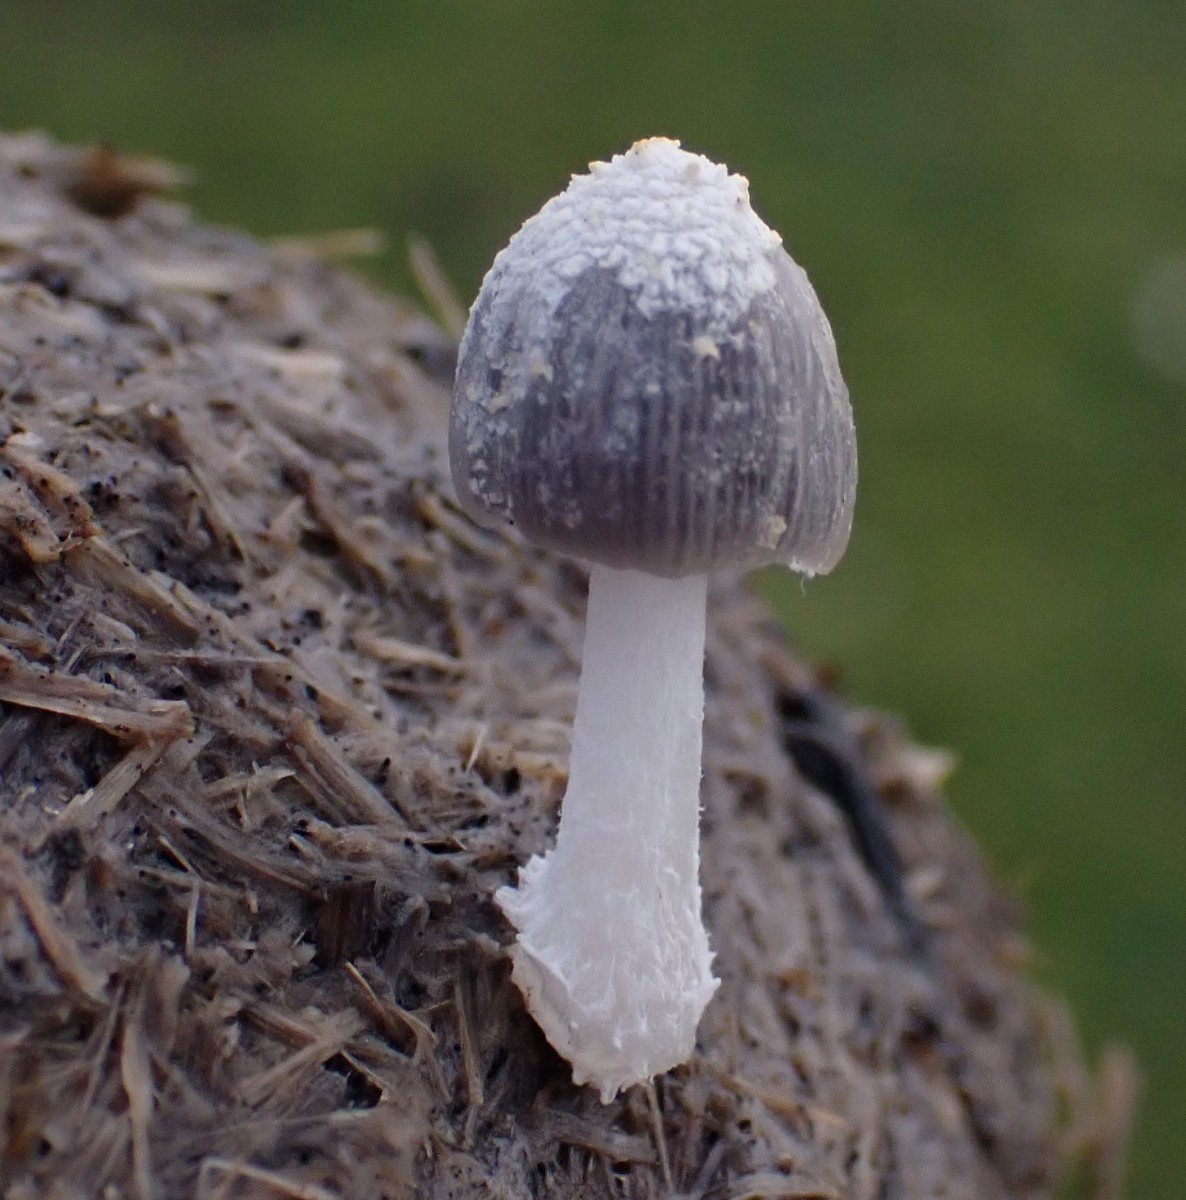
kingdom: Fungi
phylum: Basidiomycota
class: Agaricomycetes
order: Agaricales
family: Psathyrellaceae
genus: Coprinopsis
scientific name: Coprinopsis nivea
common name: snehvid blækhat
